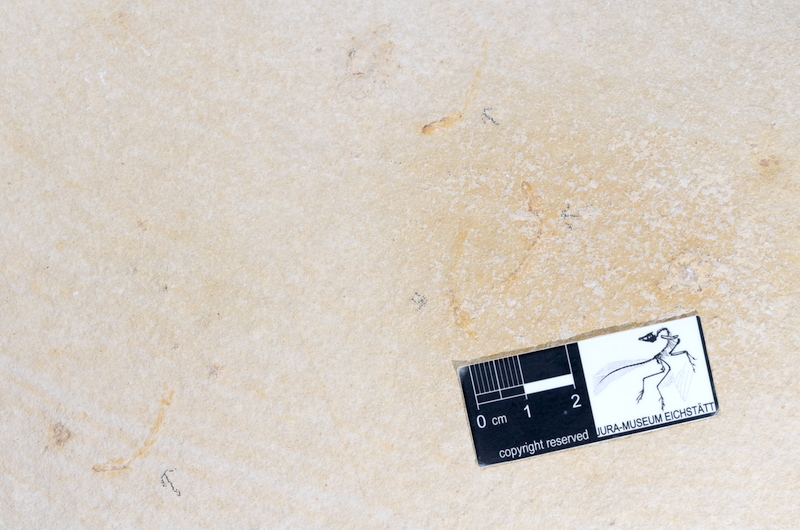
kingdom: Animalia
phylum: Chordata
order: Salmoniformes
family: Orthogonikleithridae
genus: Leptolepides
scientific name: Leptolepides sprattiformis
